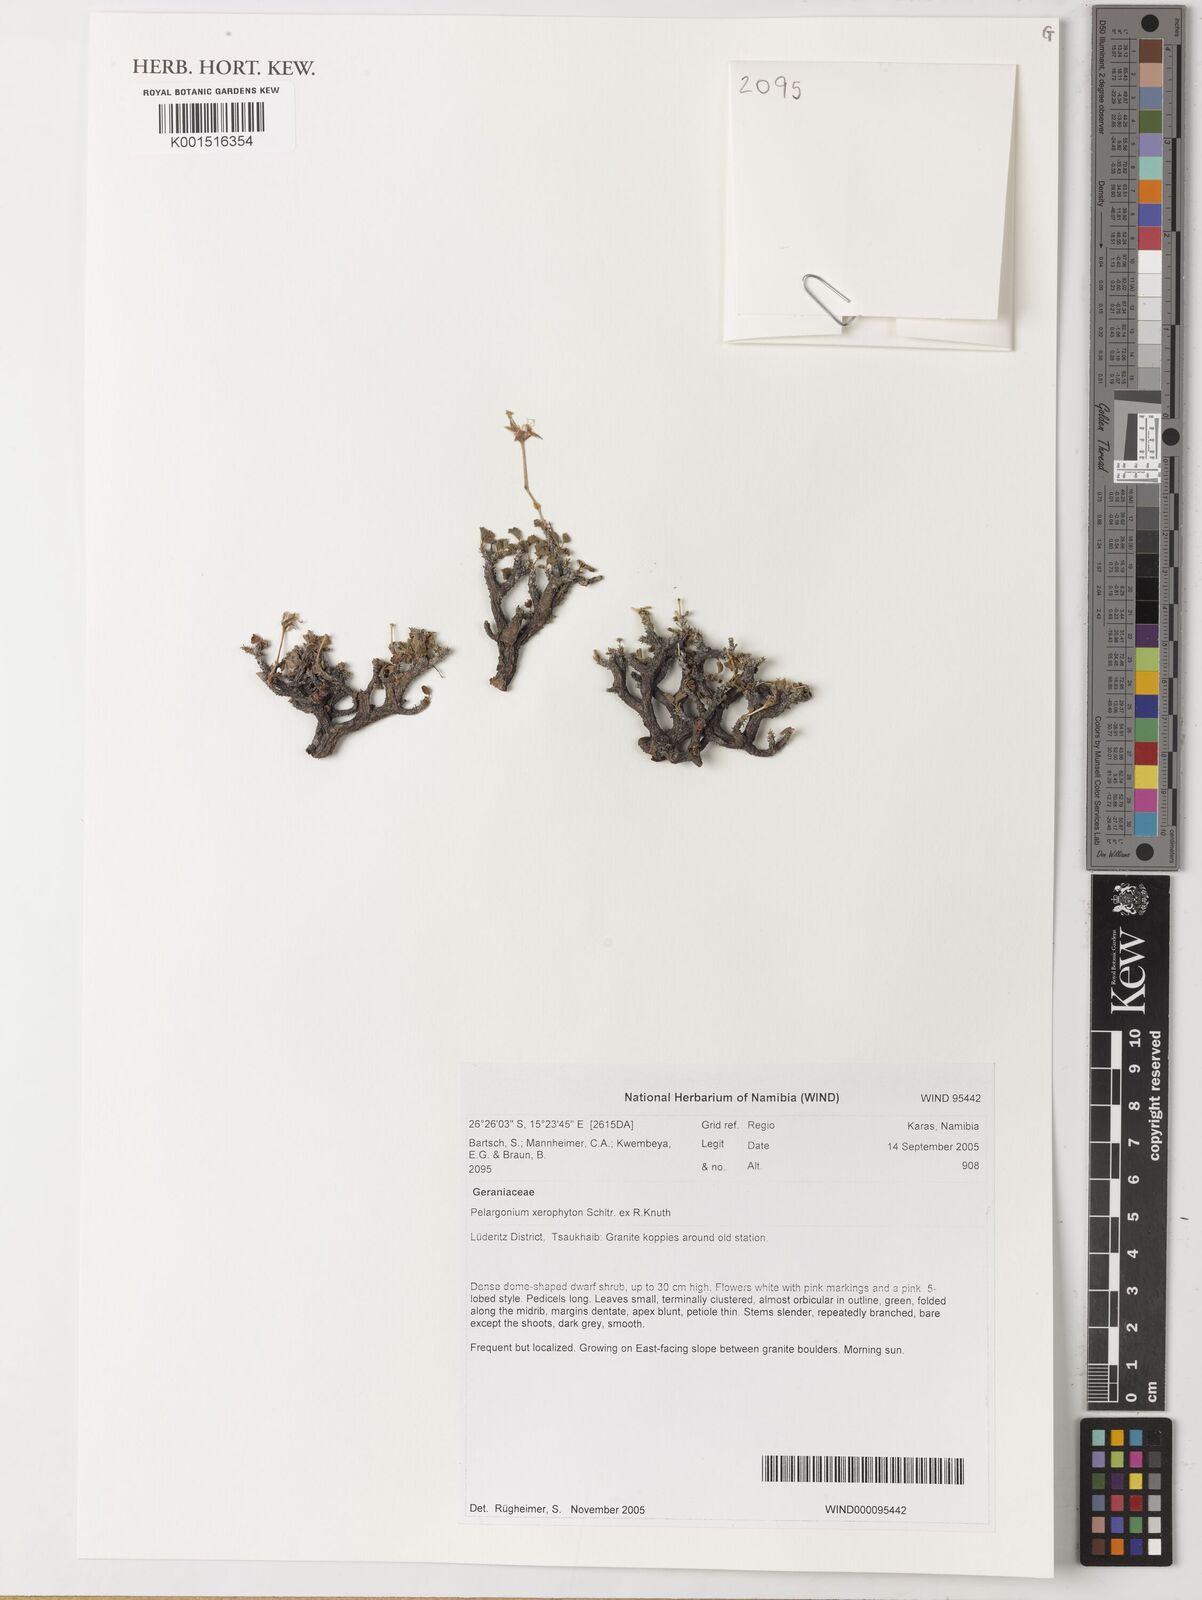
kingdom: Plantae
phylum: Tracheophyta
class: Magnoliopsida
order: Geraniales
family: Geraniaceae
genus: Pelargonium
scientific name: Pelargonium
